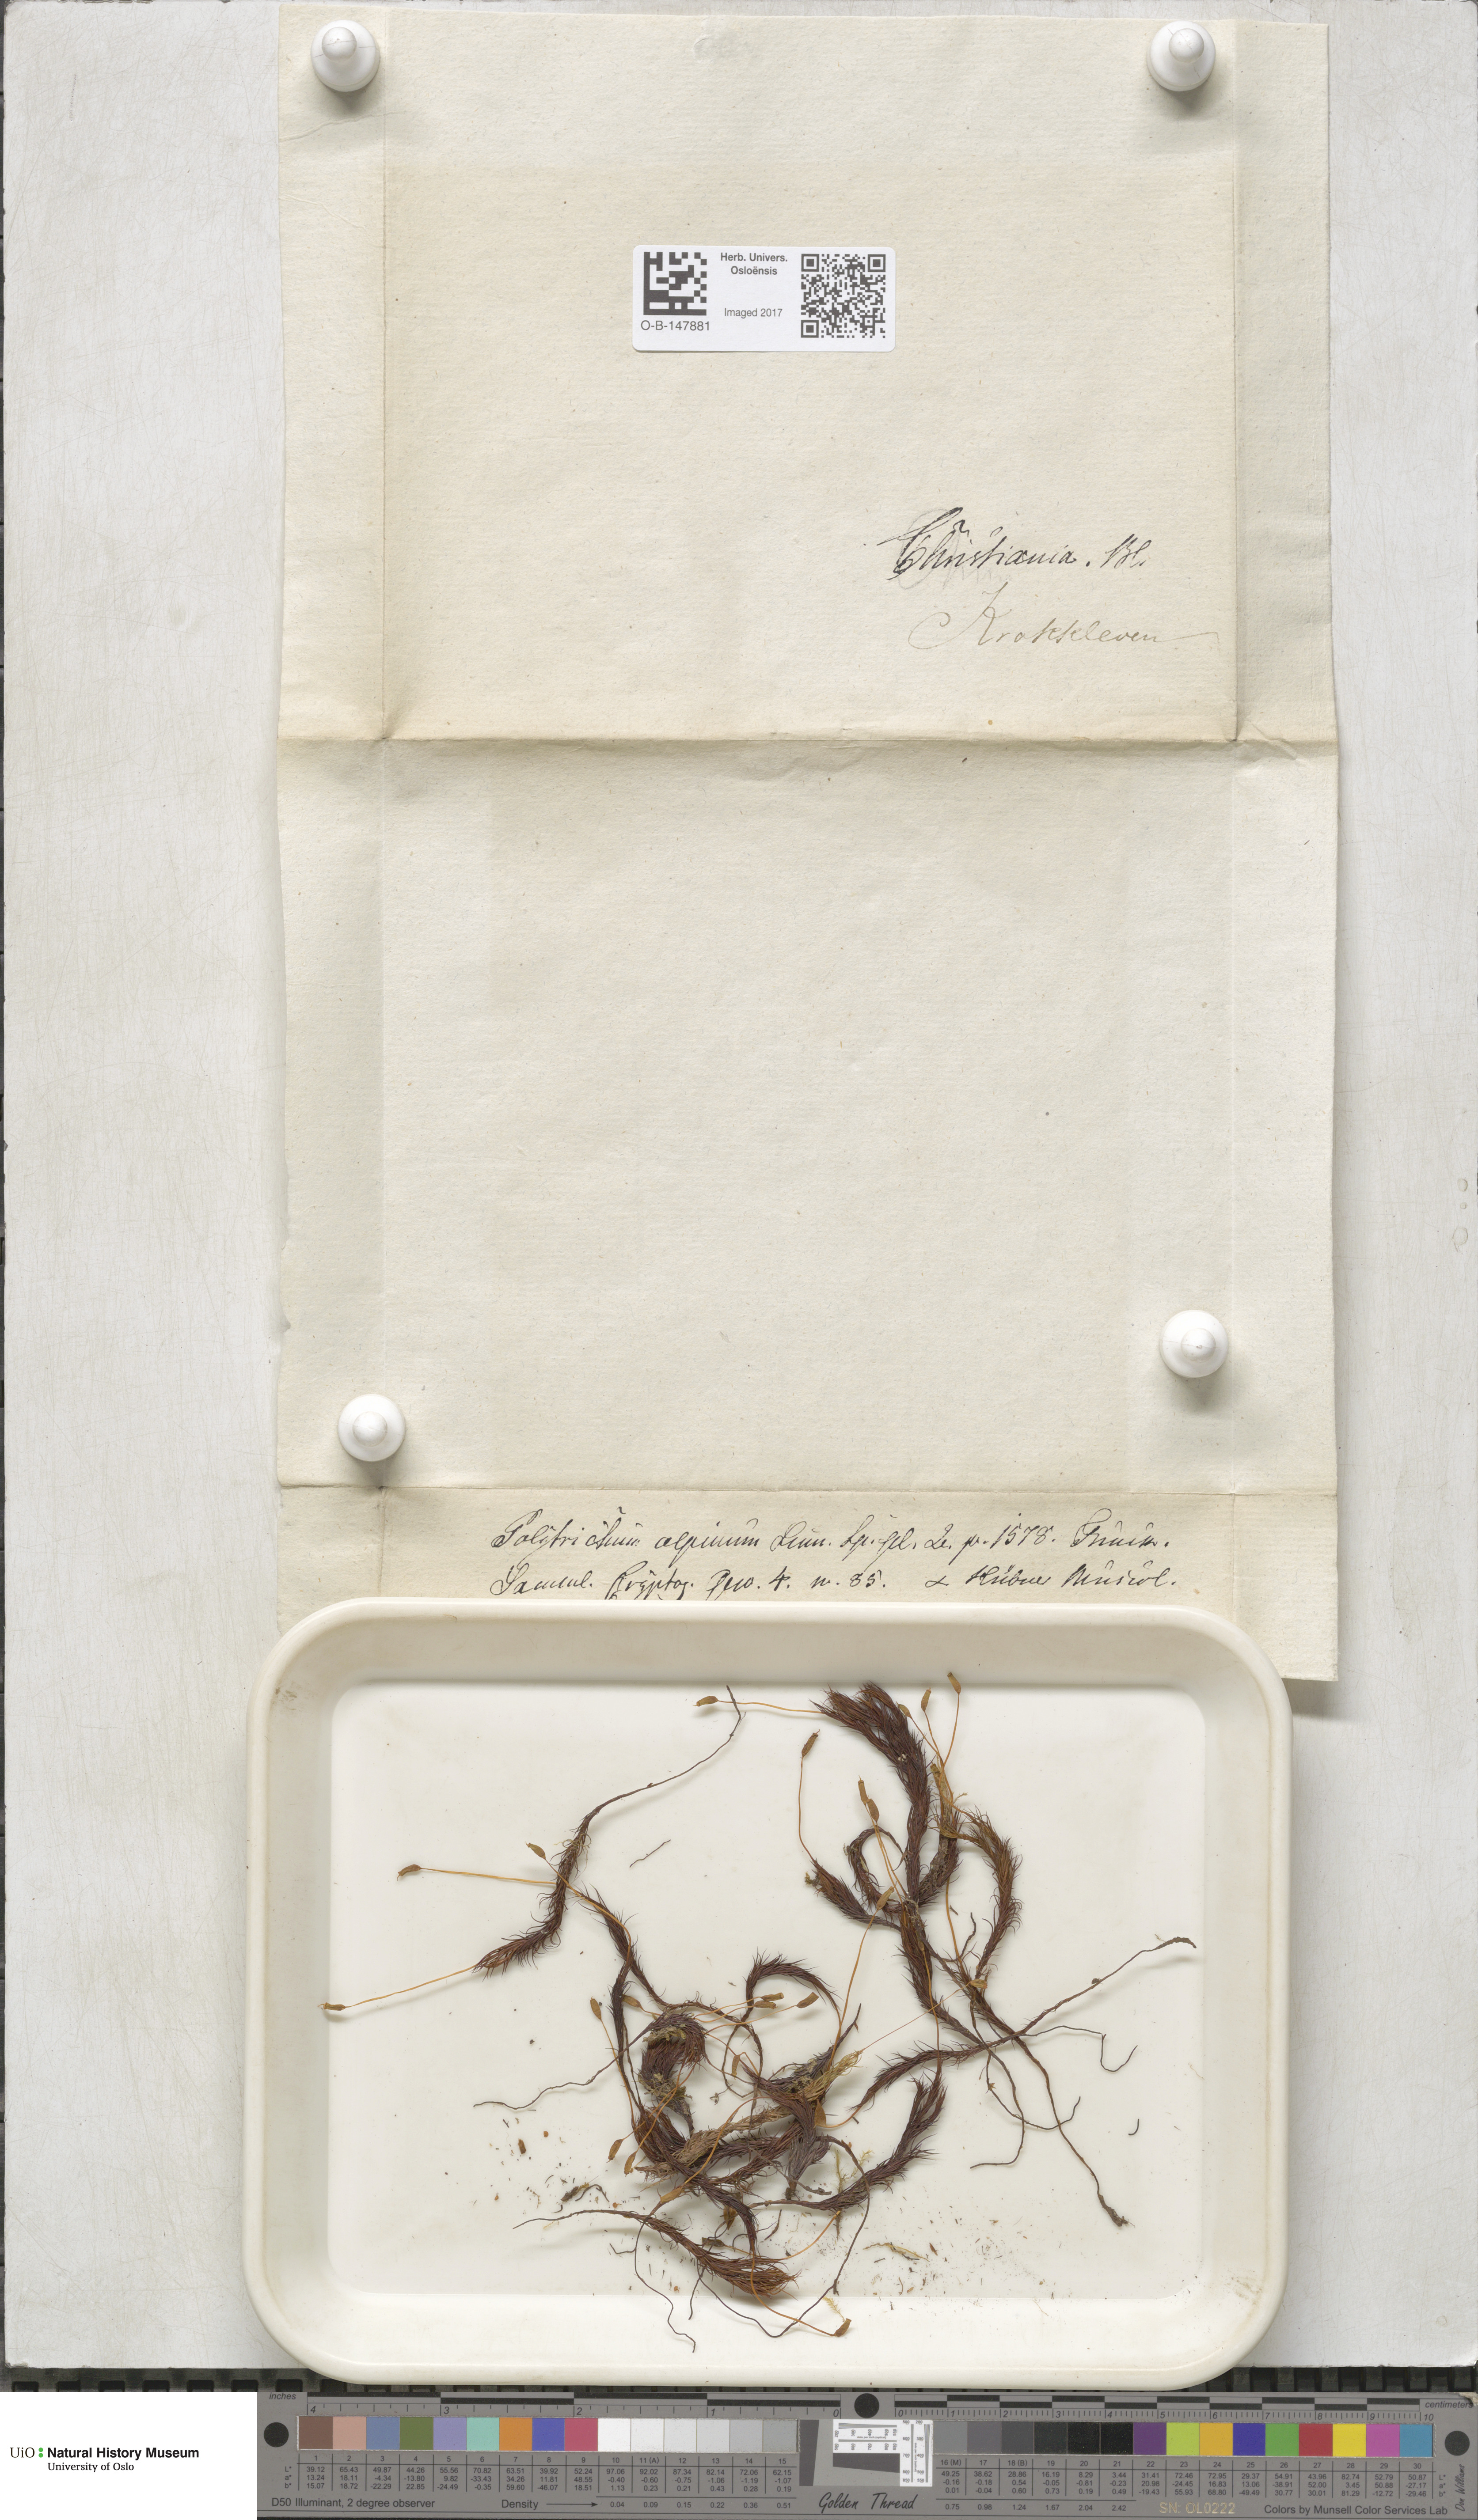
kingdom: Plantae
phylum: Bryophyta
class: Polytrichopsida
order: Polytrichales
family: Polytrichaceae
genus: Polytrichastrum
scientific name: Polytrichastrum alpinum
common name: Alpine haircap
